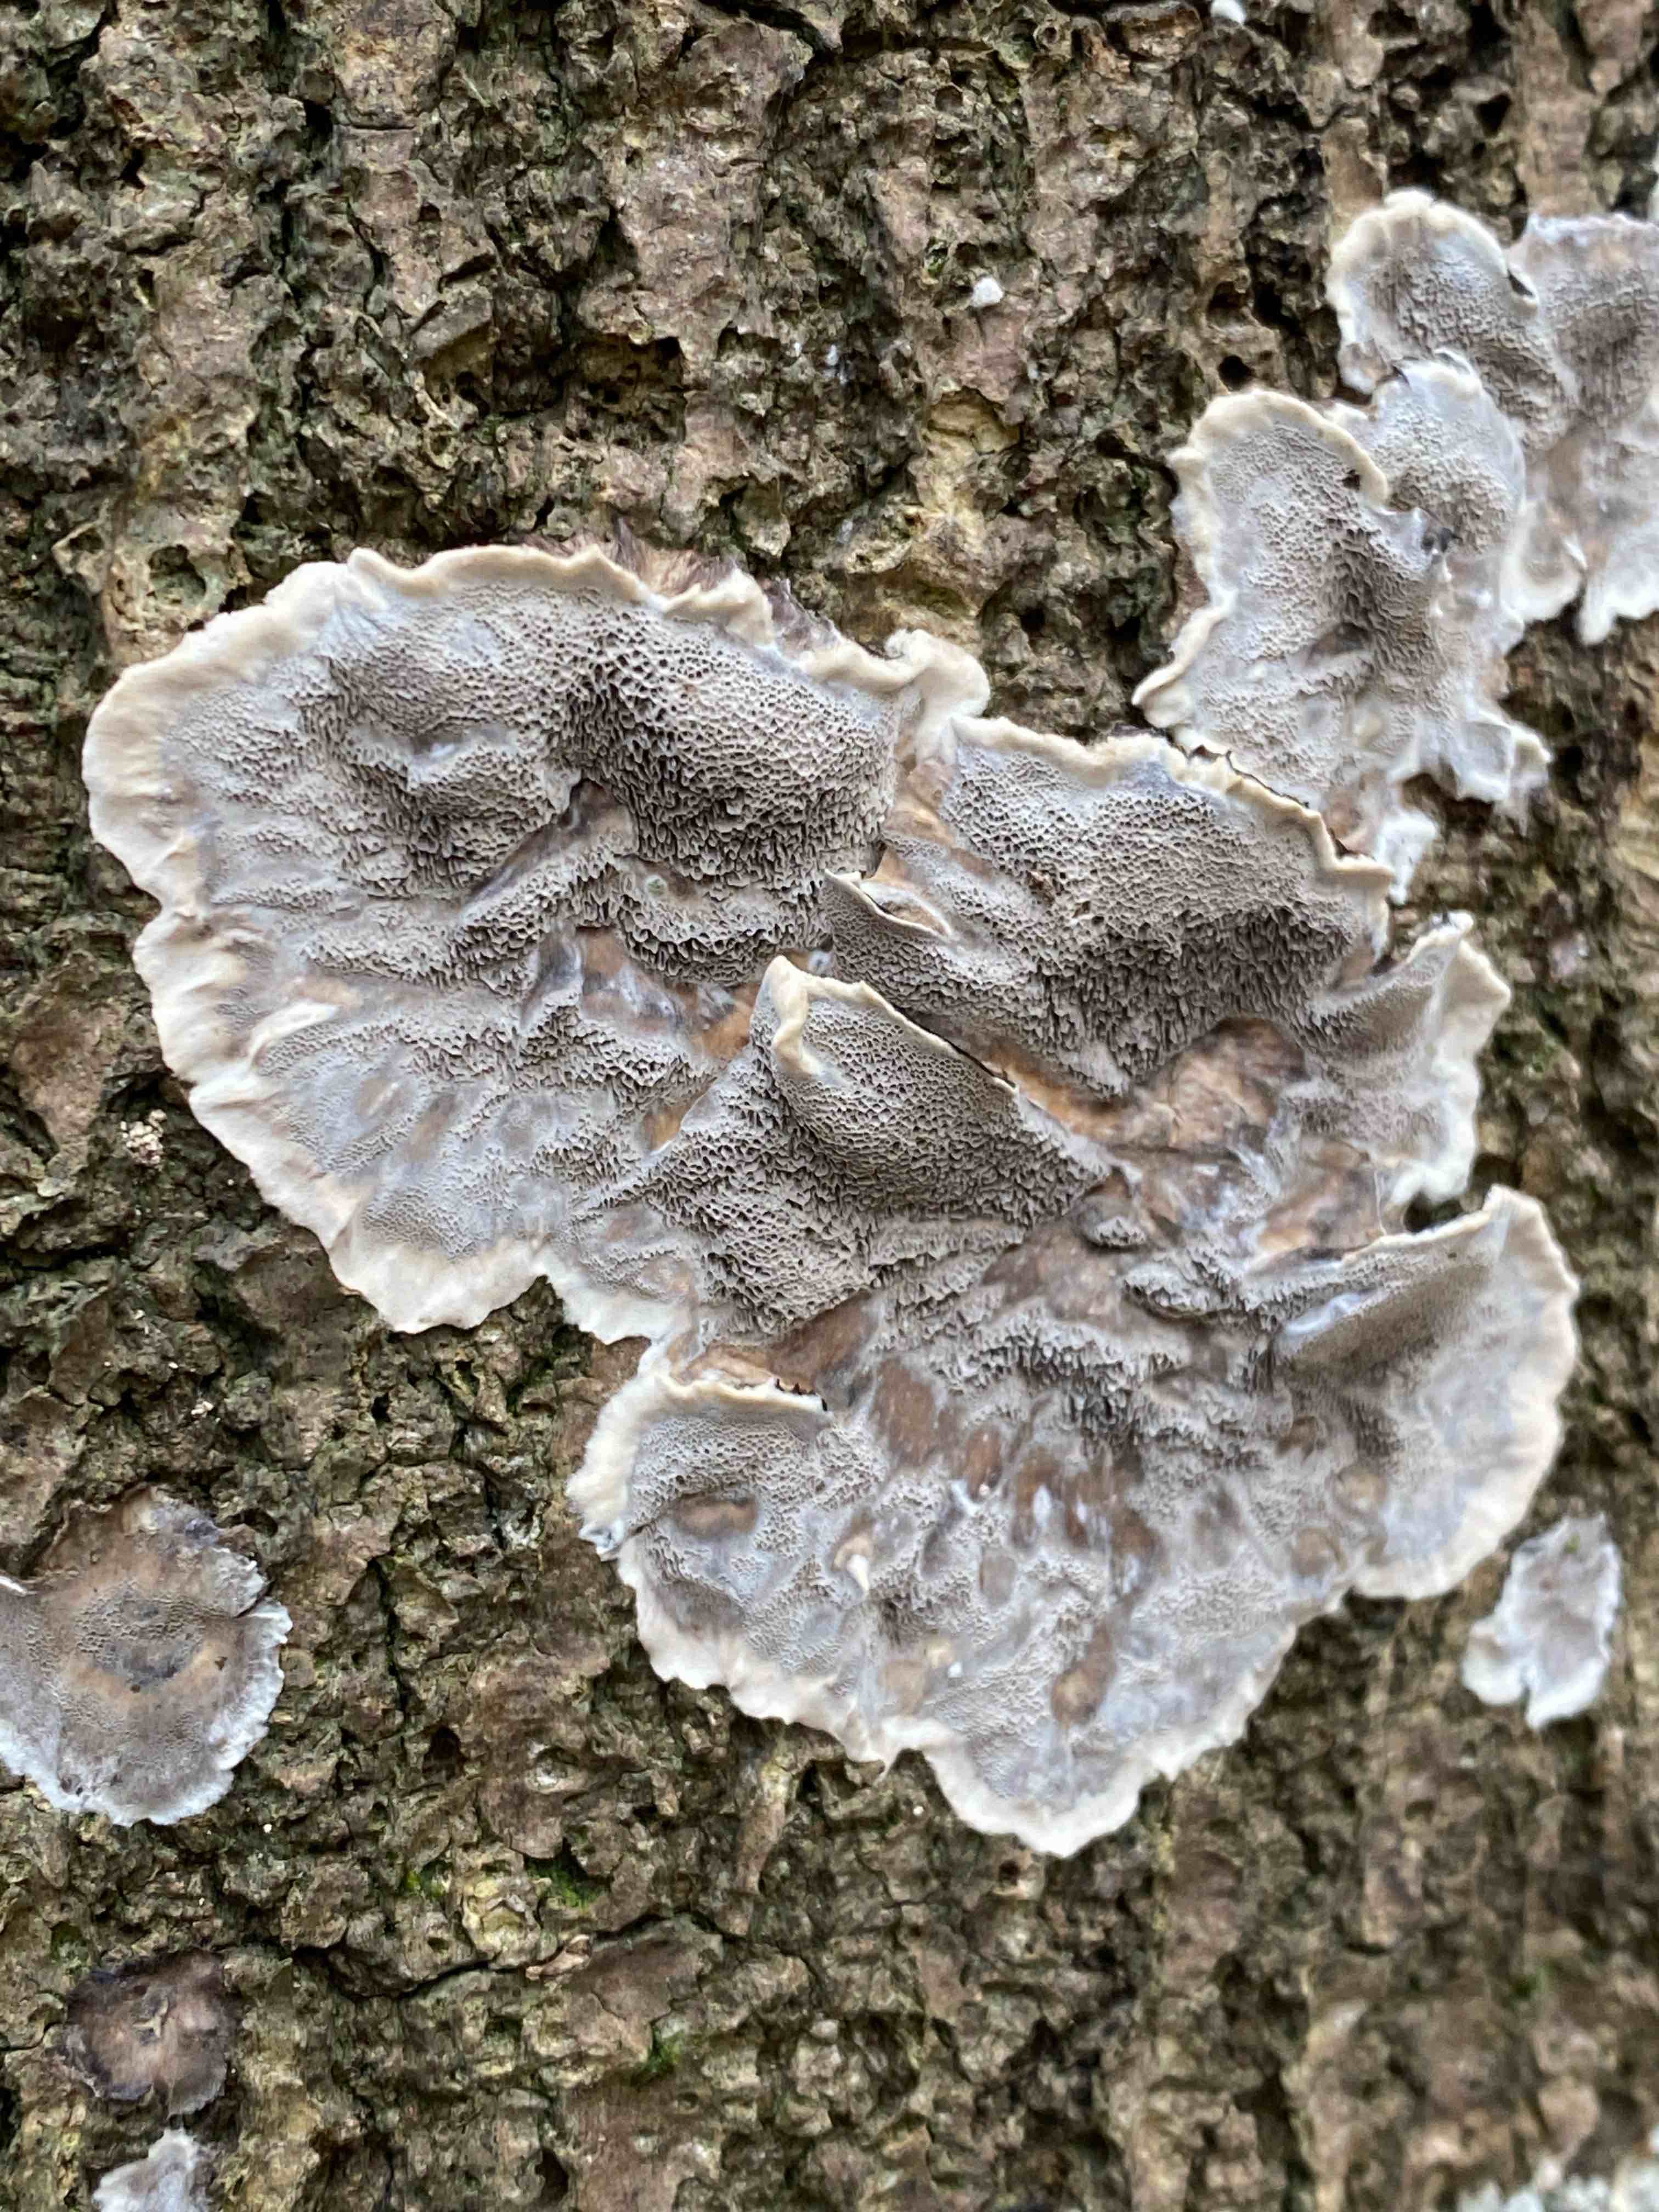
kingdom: Fungi
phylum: Basidiomycota
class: Agaricomycetes
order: Polyporales
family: Phanerochaetaceae
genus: Bjerkandera
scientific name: Bjerkandera adusta
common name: sveden sodporesvamp
